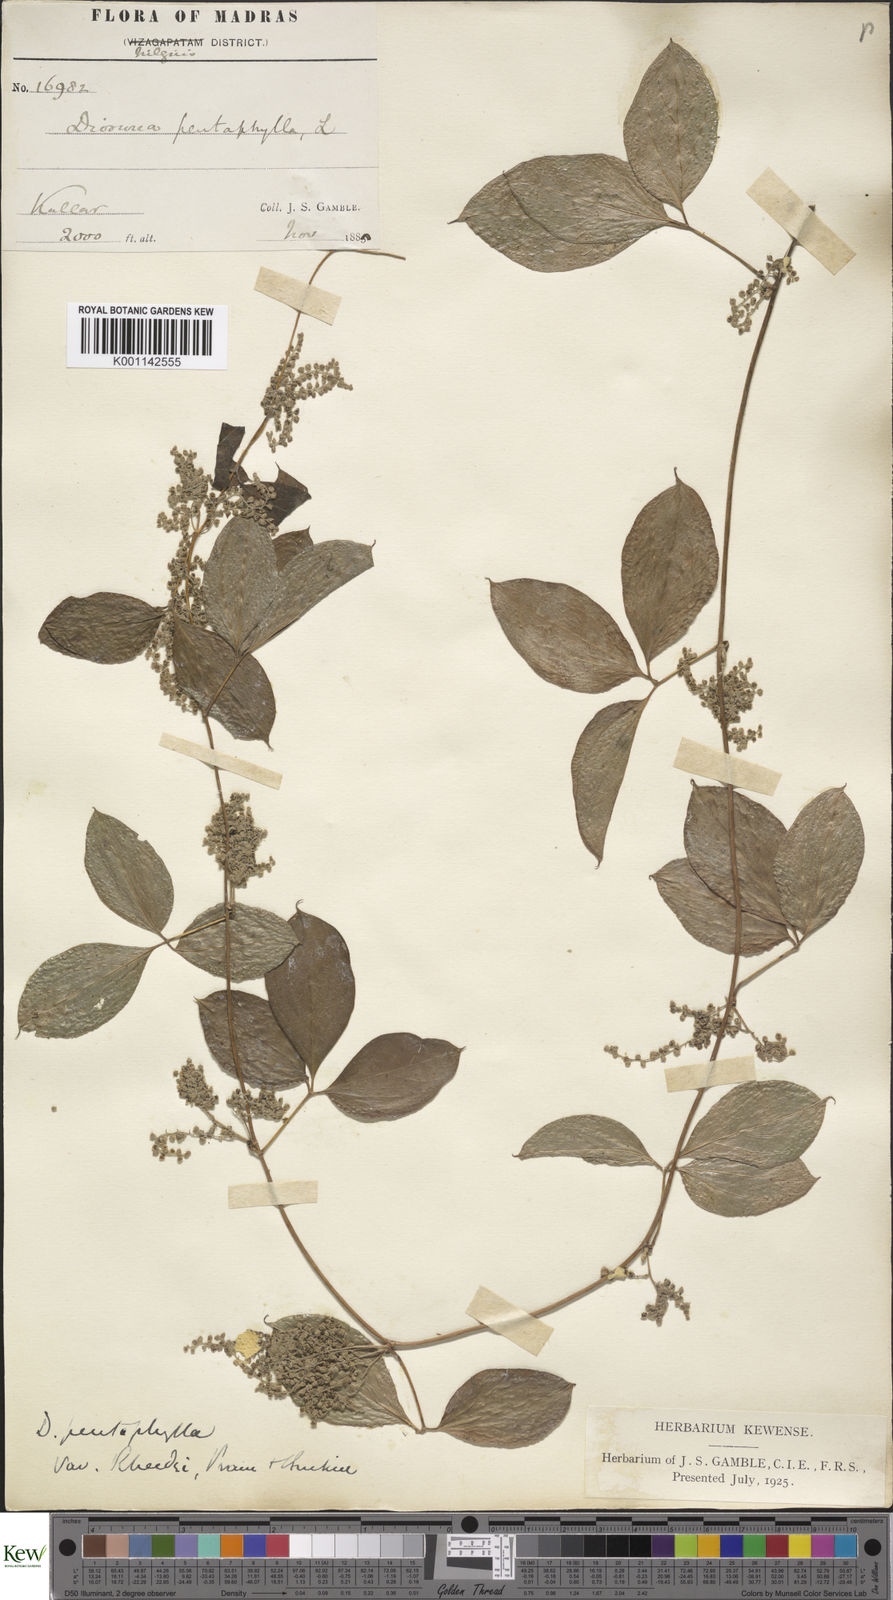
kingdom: Plantae
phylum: Tracheophyta
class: Liliopsida
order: Dioscoreales
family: Dioscoreaceae
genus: Dioscorea
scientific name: Dioscorea pentaphylla
